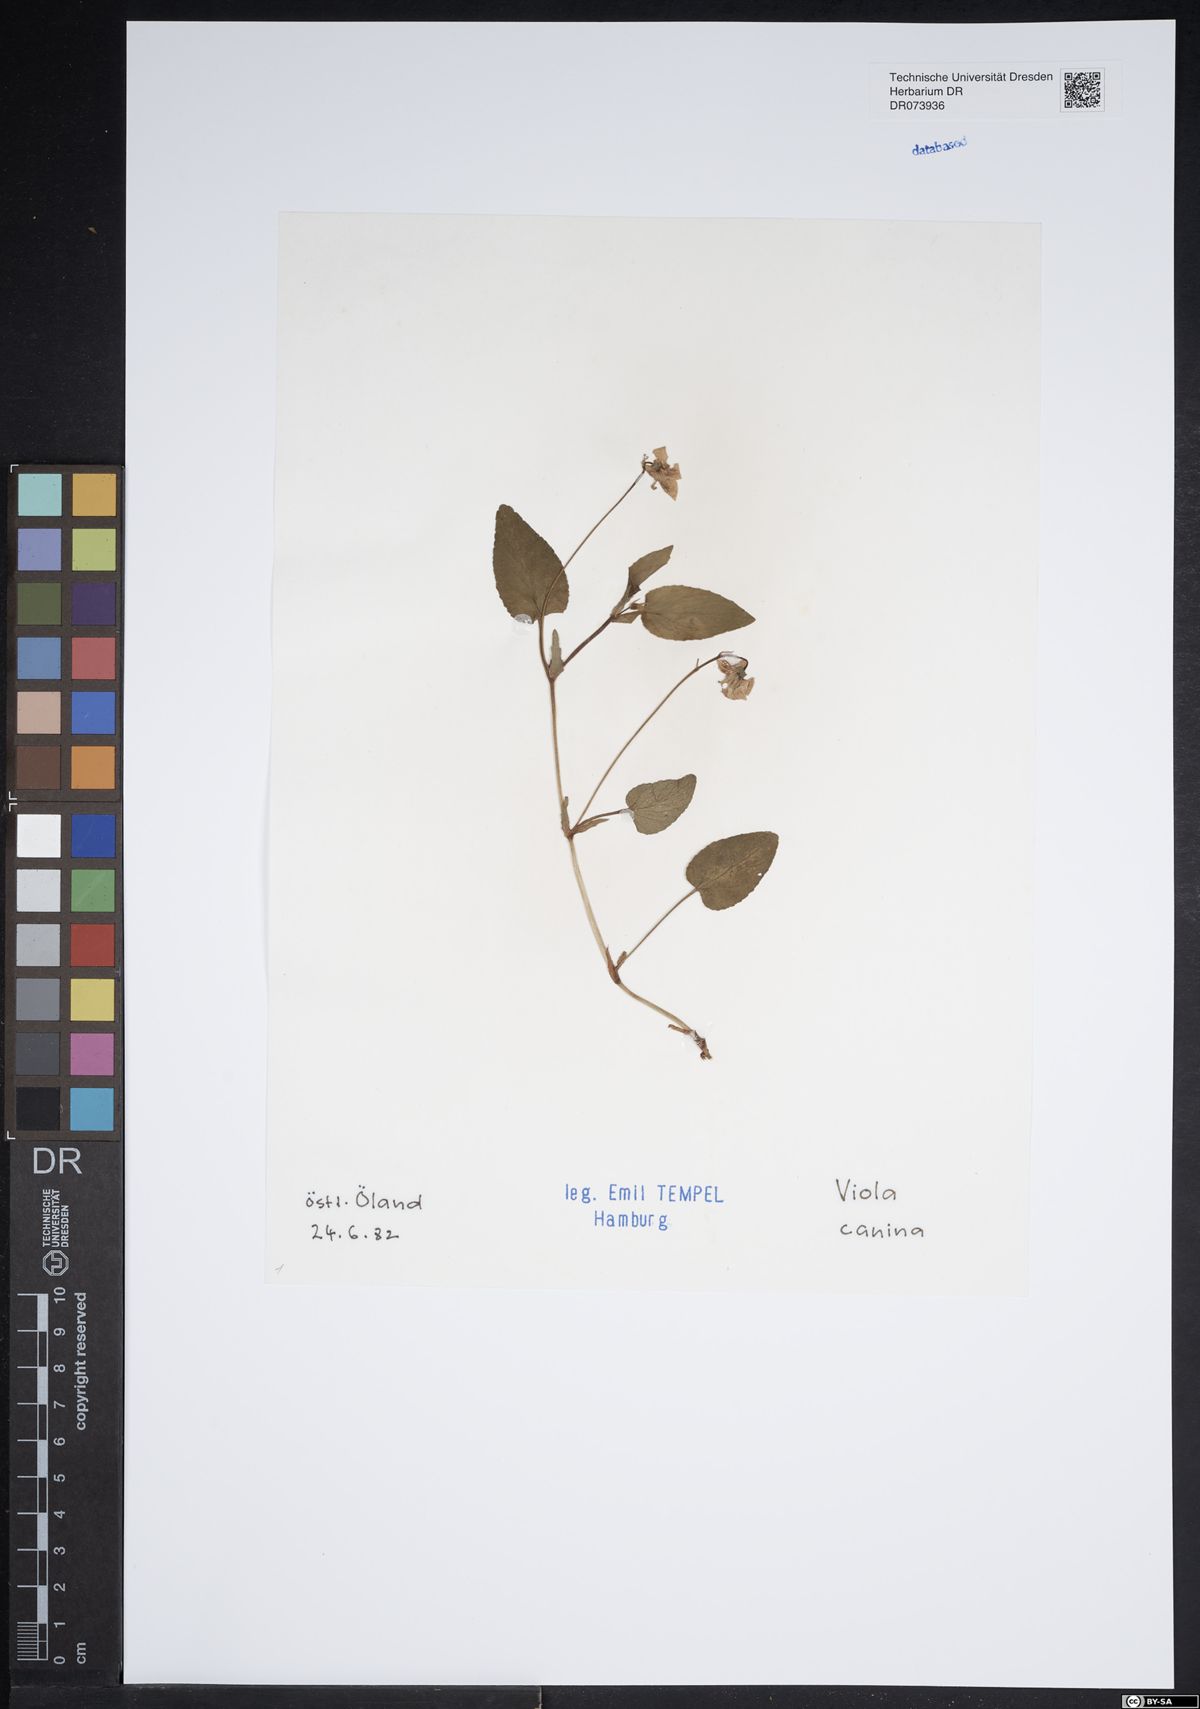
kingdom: Plantae
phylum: Tracheophyta
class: Magnoliopsida
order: Malpighiales
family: Violaceae
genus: Viola
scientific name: Viola canina
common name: Heath dog-violet
